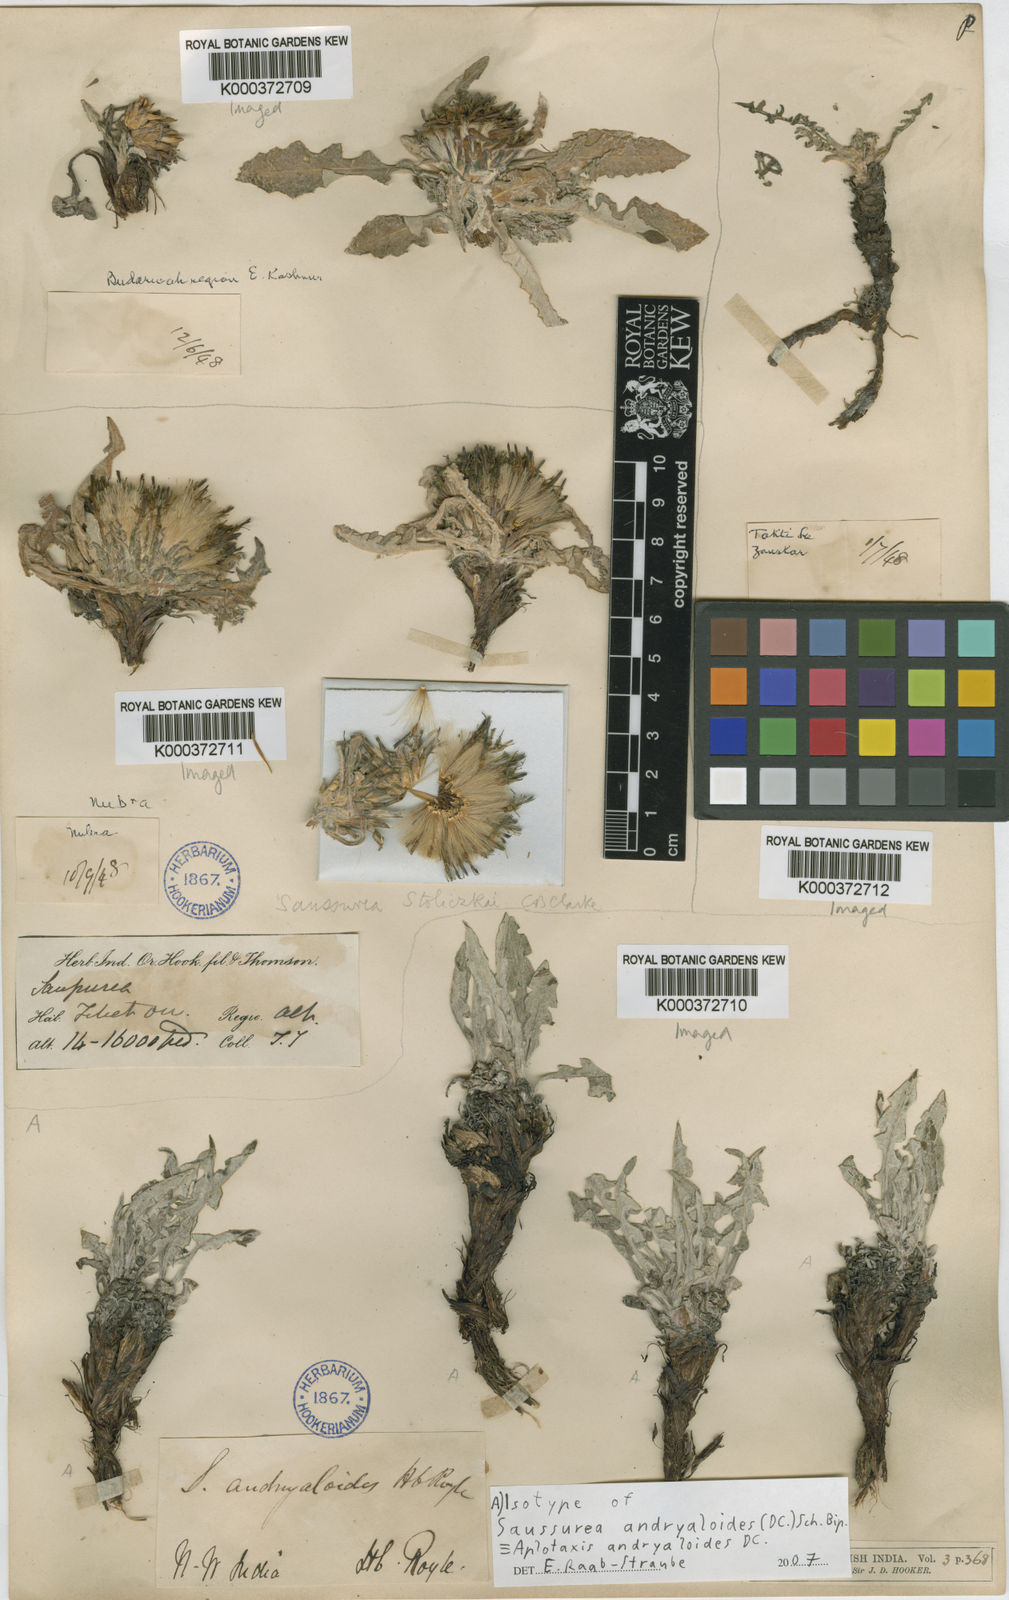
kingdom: Plantae
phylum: Tracheophyta
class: Magnoliopsida
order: Asterales
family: Asteraceae
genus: Saussurea
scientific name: Saussurea schlagintweitii
